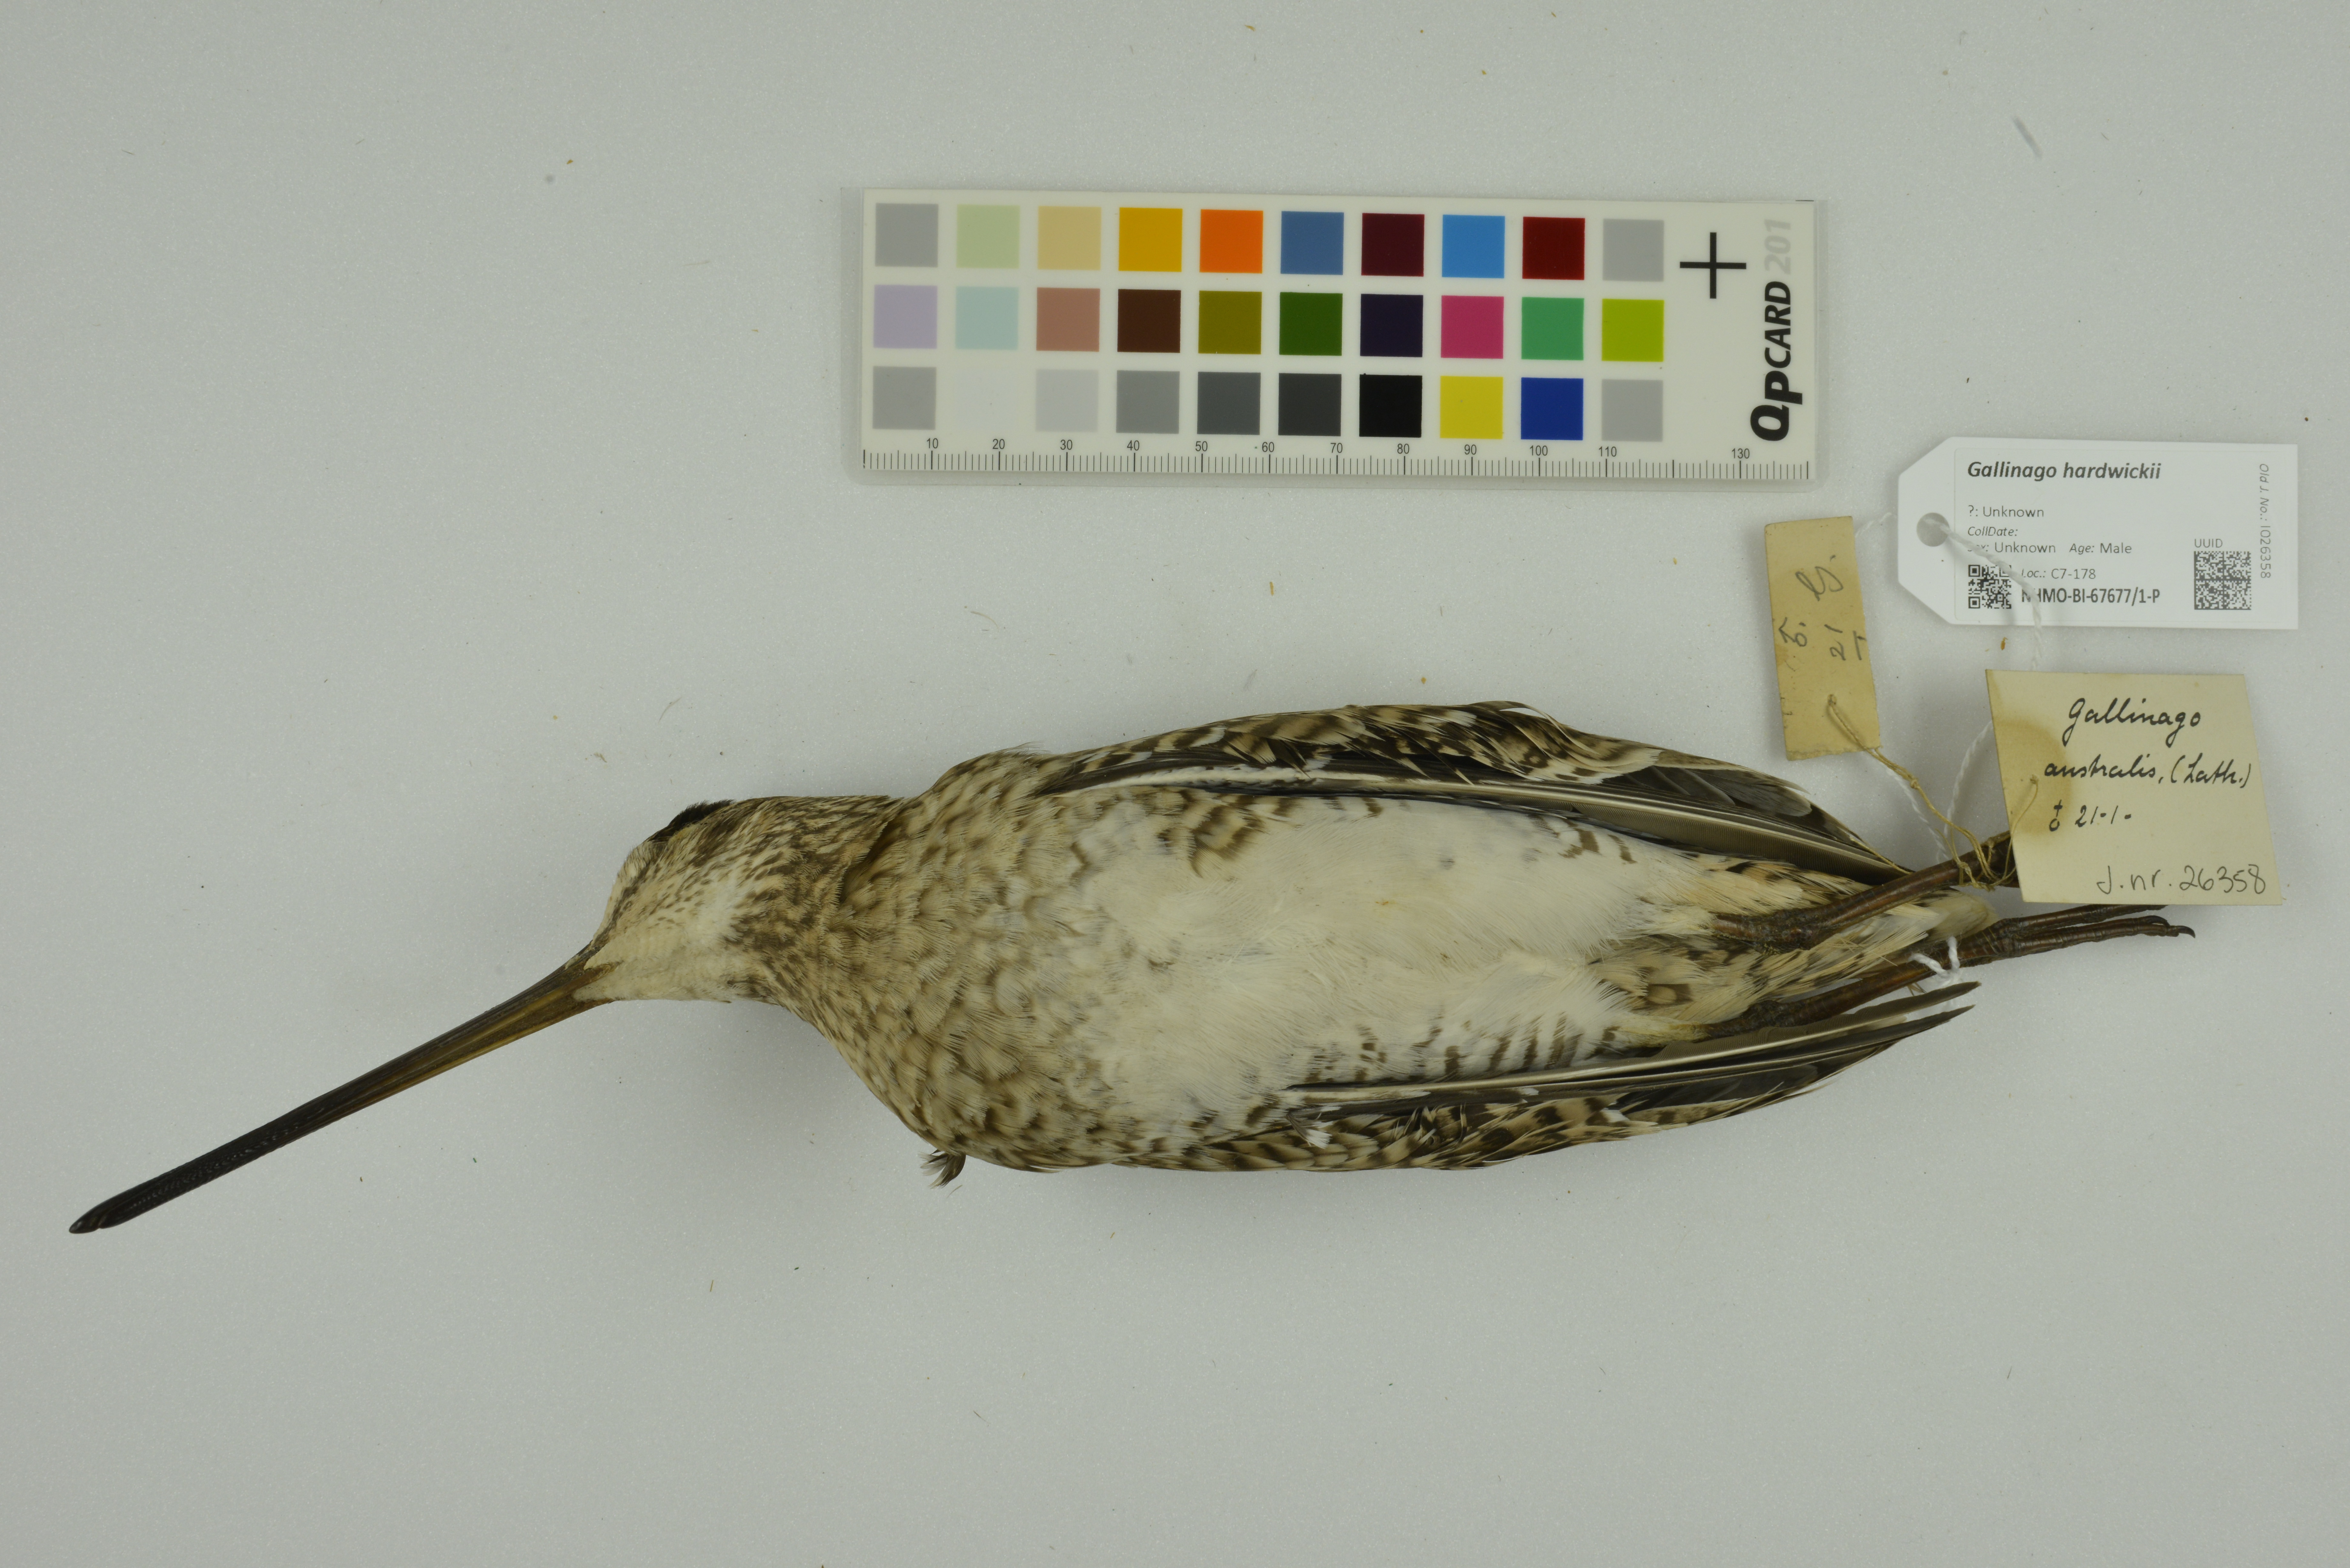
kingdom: Animalia
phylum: Chordata
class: Aves
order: Charadriiformes
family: Scolopacidae
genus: Gallinago
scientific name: Gallinago hardwickii
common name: Latham's snipe
